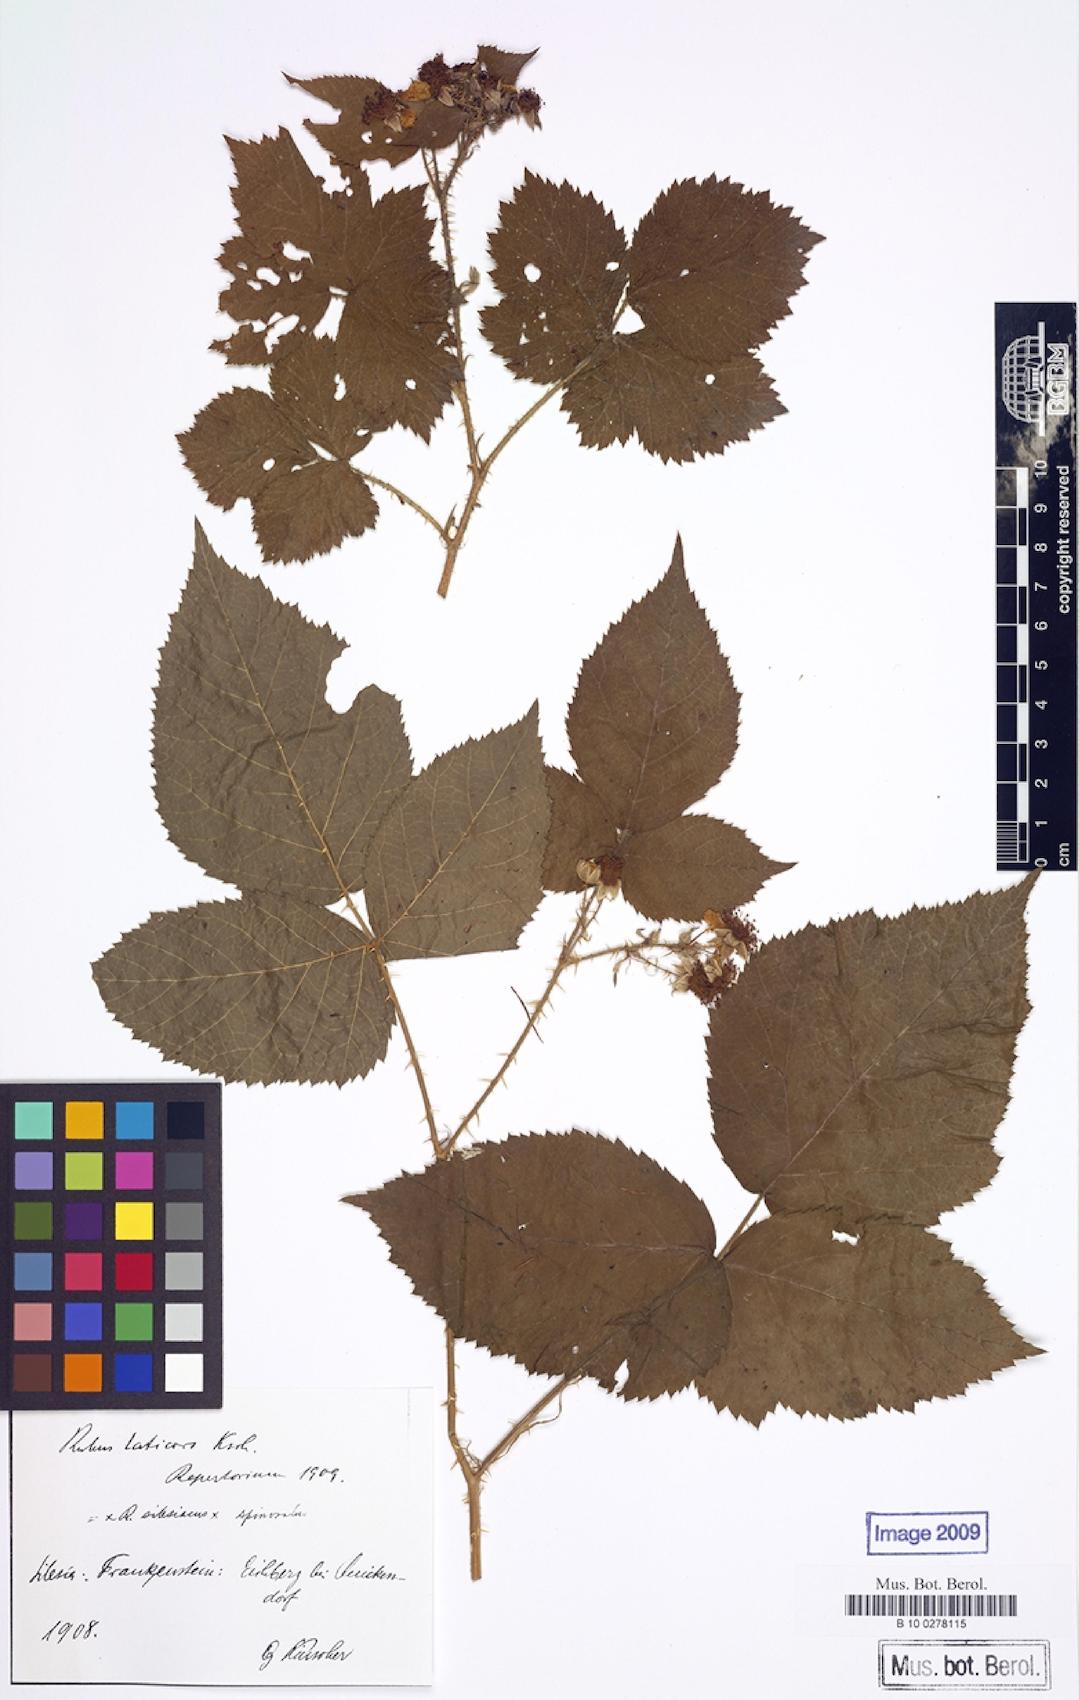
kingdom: Plantae
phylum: Tracheophyta
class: Magnoliopsida
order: Rosales
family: Rosaceae
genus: Rubus
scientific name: Rubus laticors
